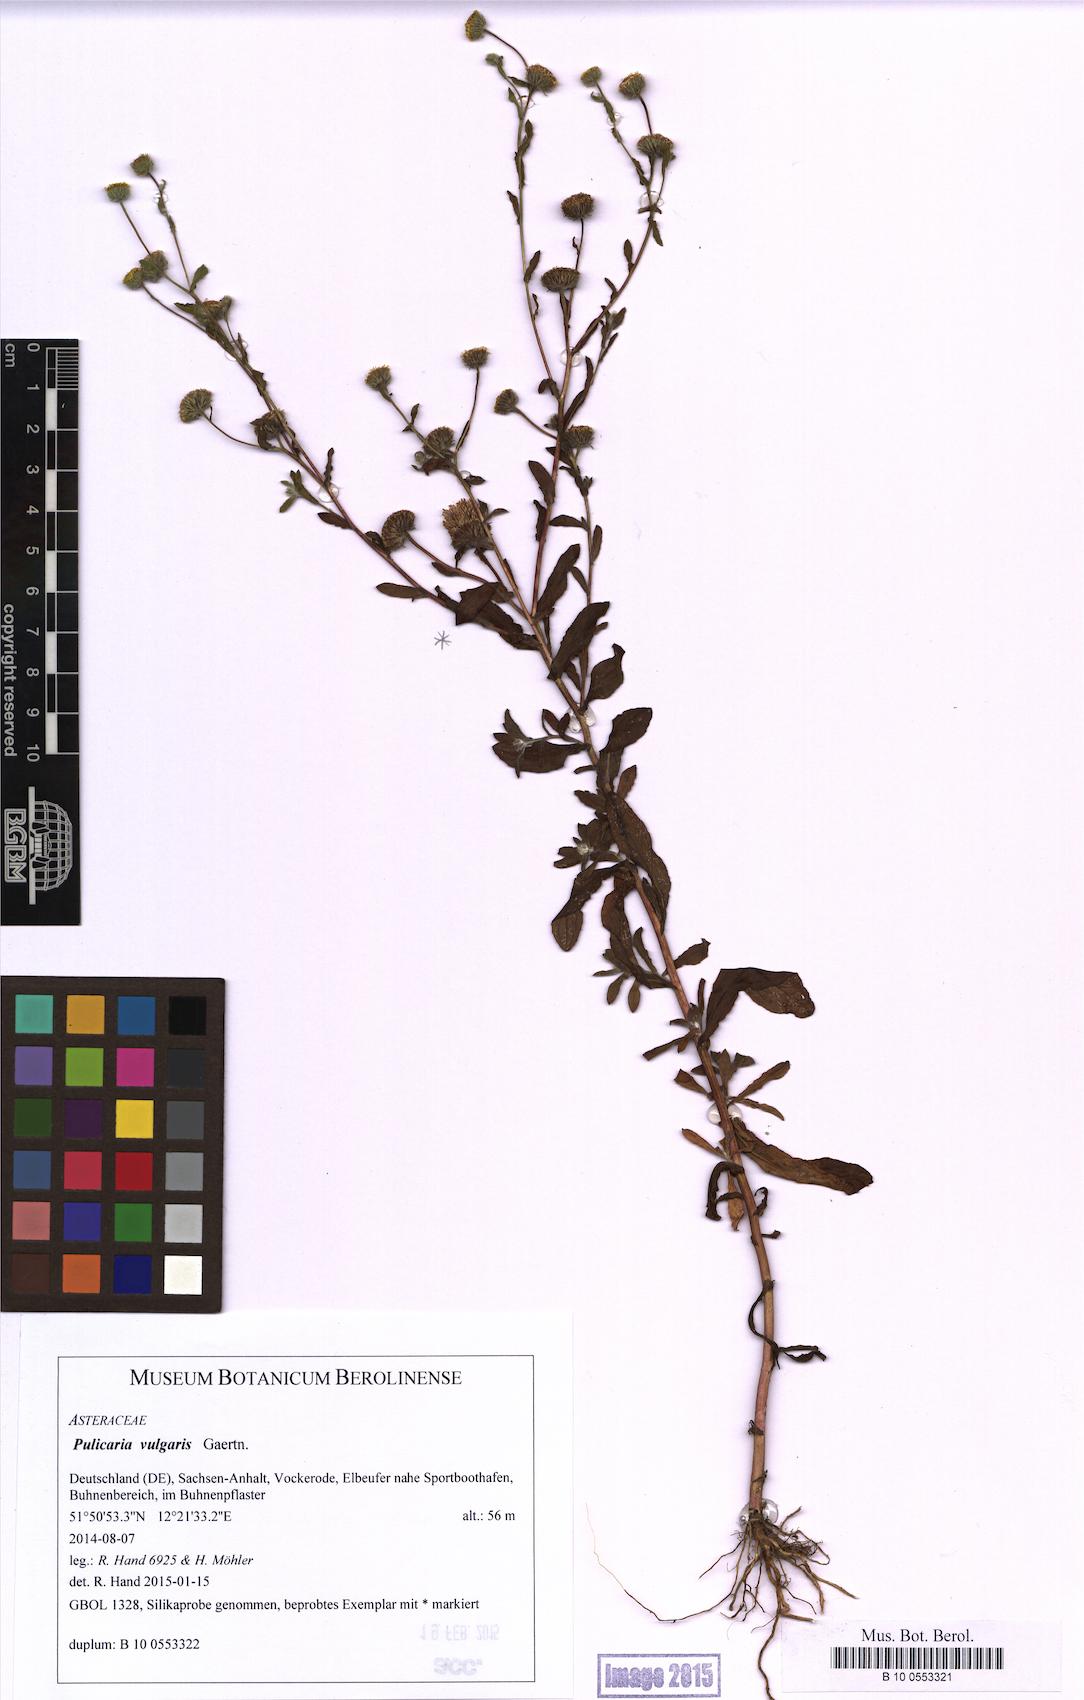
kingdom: Plantae
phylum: Tracheophyta
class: Magnoliopsida
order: Asterales
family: Asteraceae
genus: Pulicaria
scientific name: Pulicaria vulgaris
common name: Small fleabane
